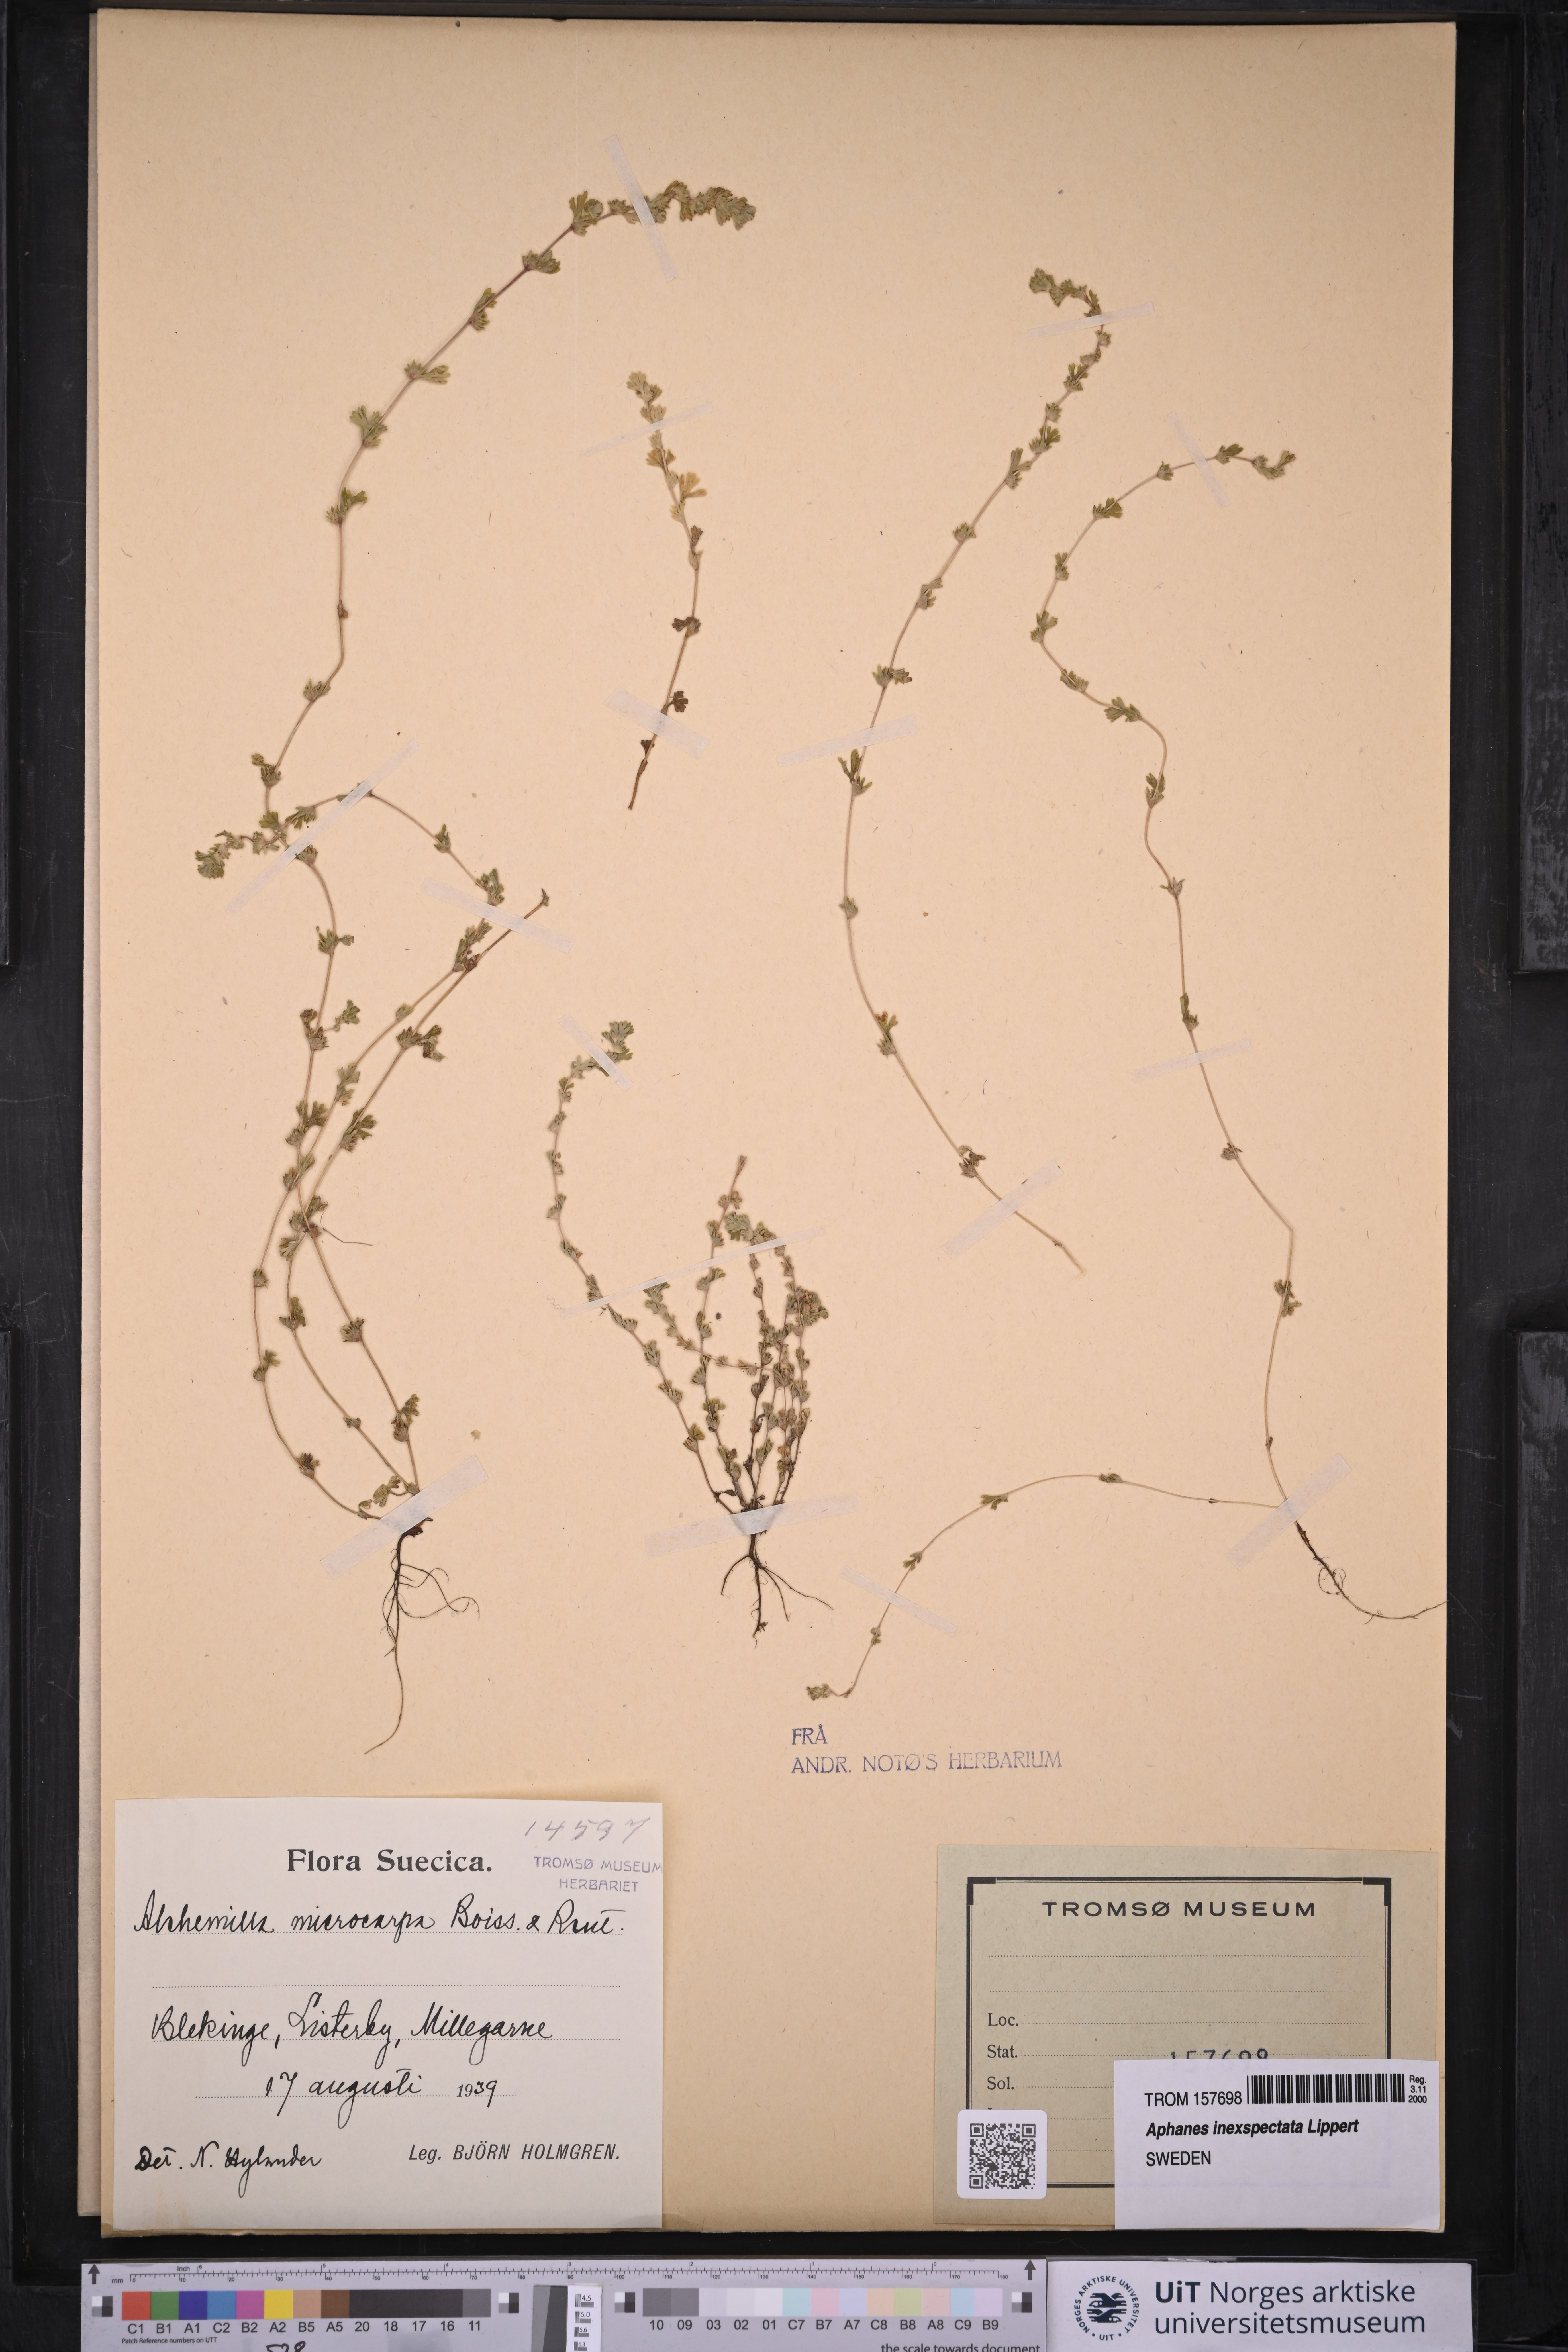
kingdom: Plantae
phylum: Tracheophyta
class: Magnoliopsida
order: Rosales
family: Rosaceae
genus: Aphanes
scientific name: Aphanes australis
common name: Slender parsley-piert
